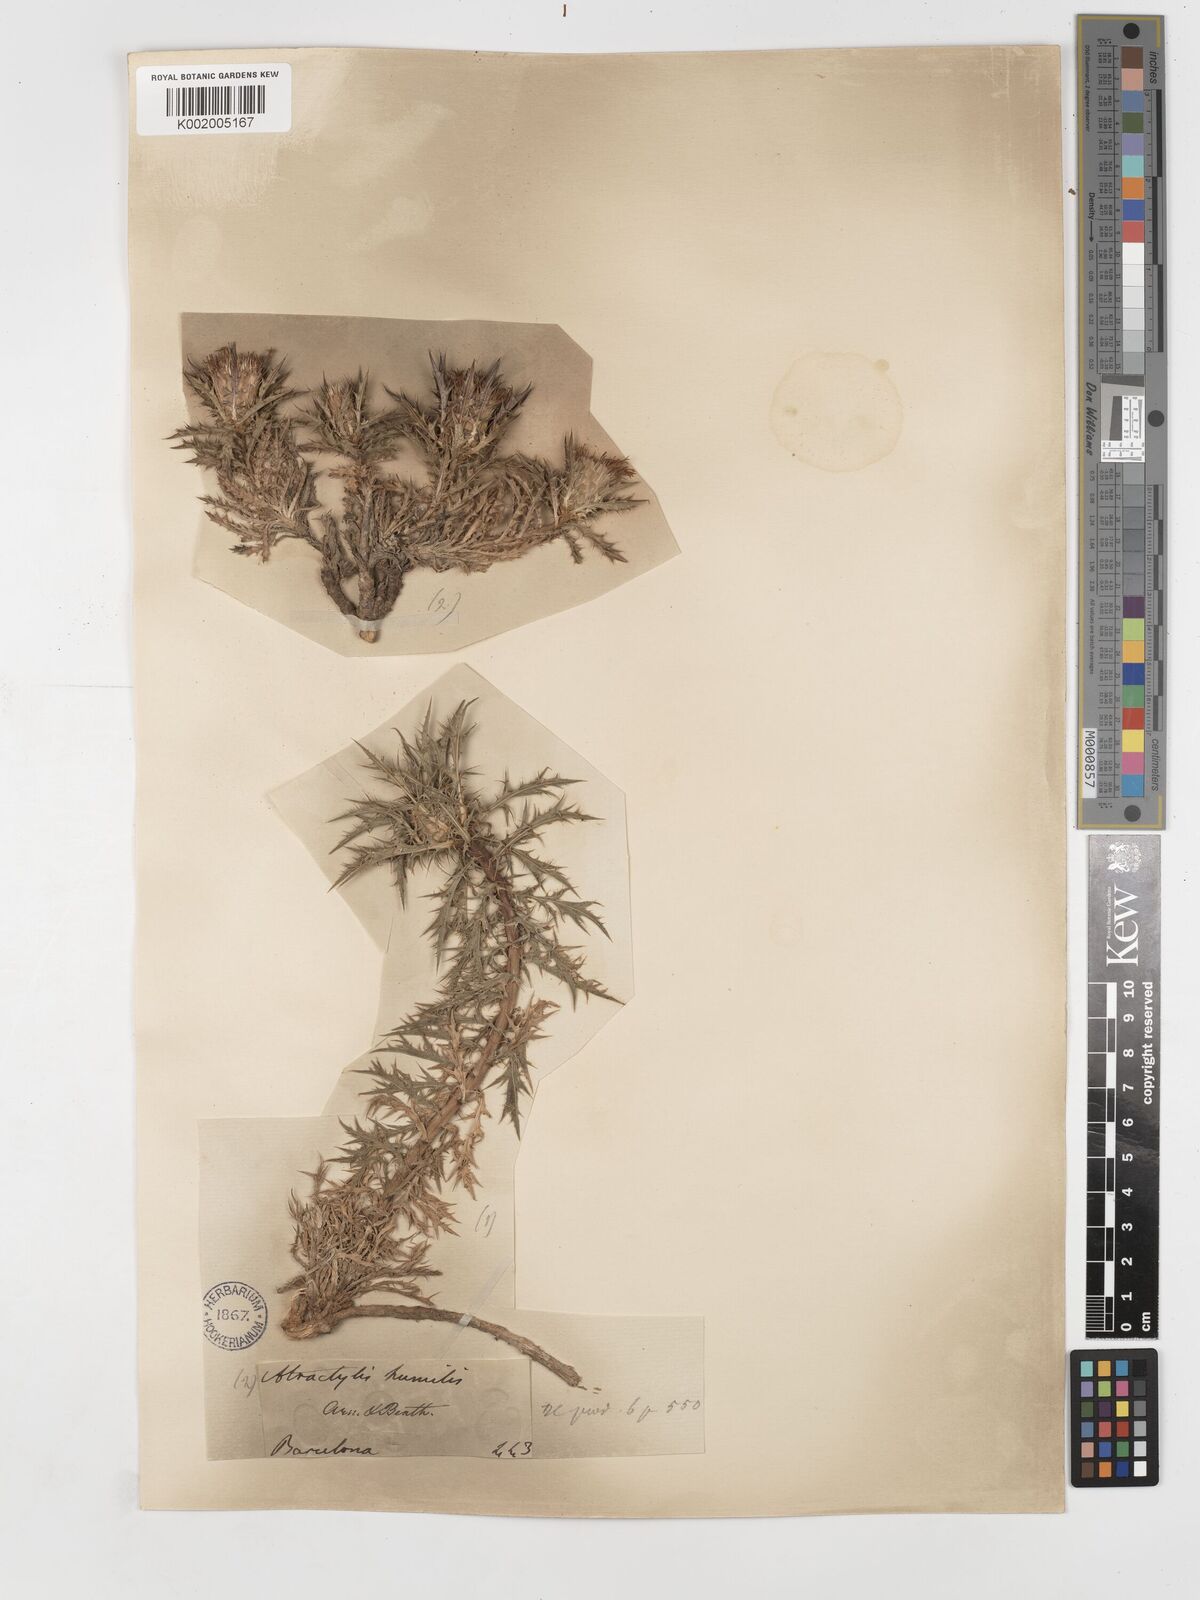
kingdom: Plantae
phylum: Tracheophyta
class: Magnoliopsida
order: Asterales
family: Asteraceae
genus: Atractylis
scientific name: Atractylis humilis
